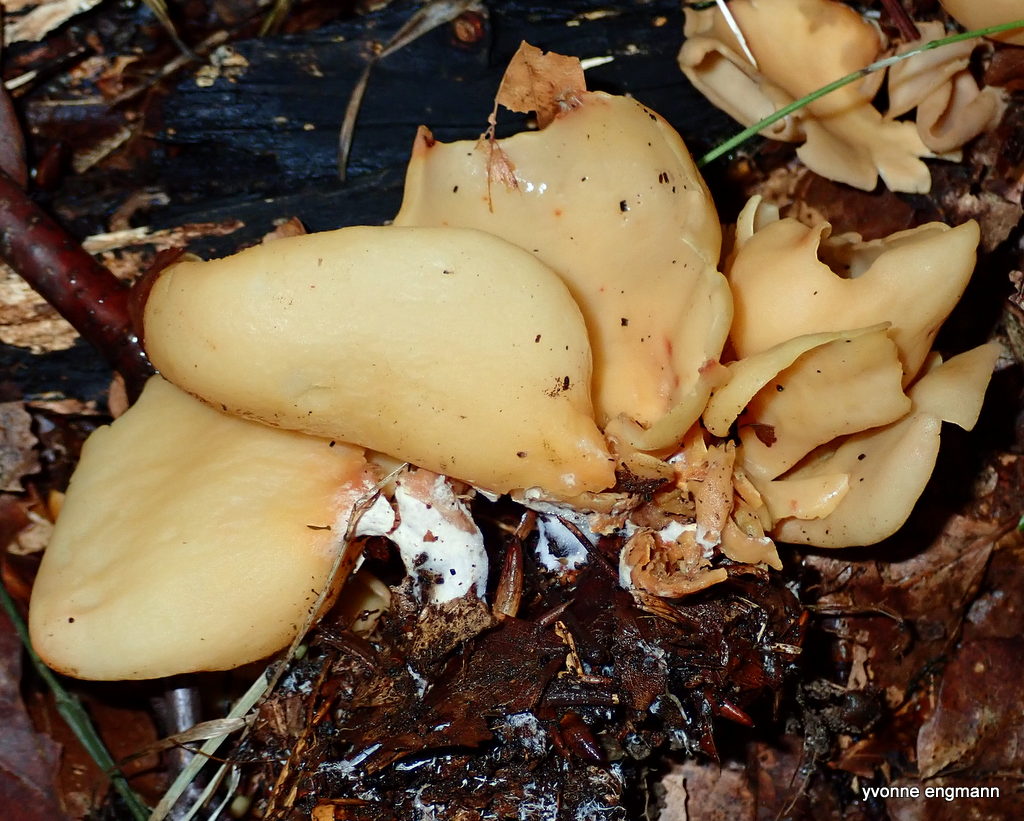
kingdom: Fungi
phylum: Ascomycota
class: Pezizomycetes
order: Pezizales
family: Otideaceae
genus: Otidea
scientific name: Otidea onotica
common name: æsel-ørebæger
